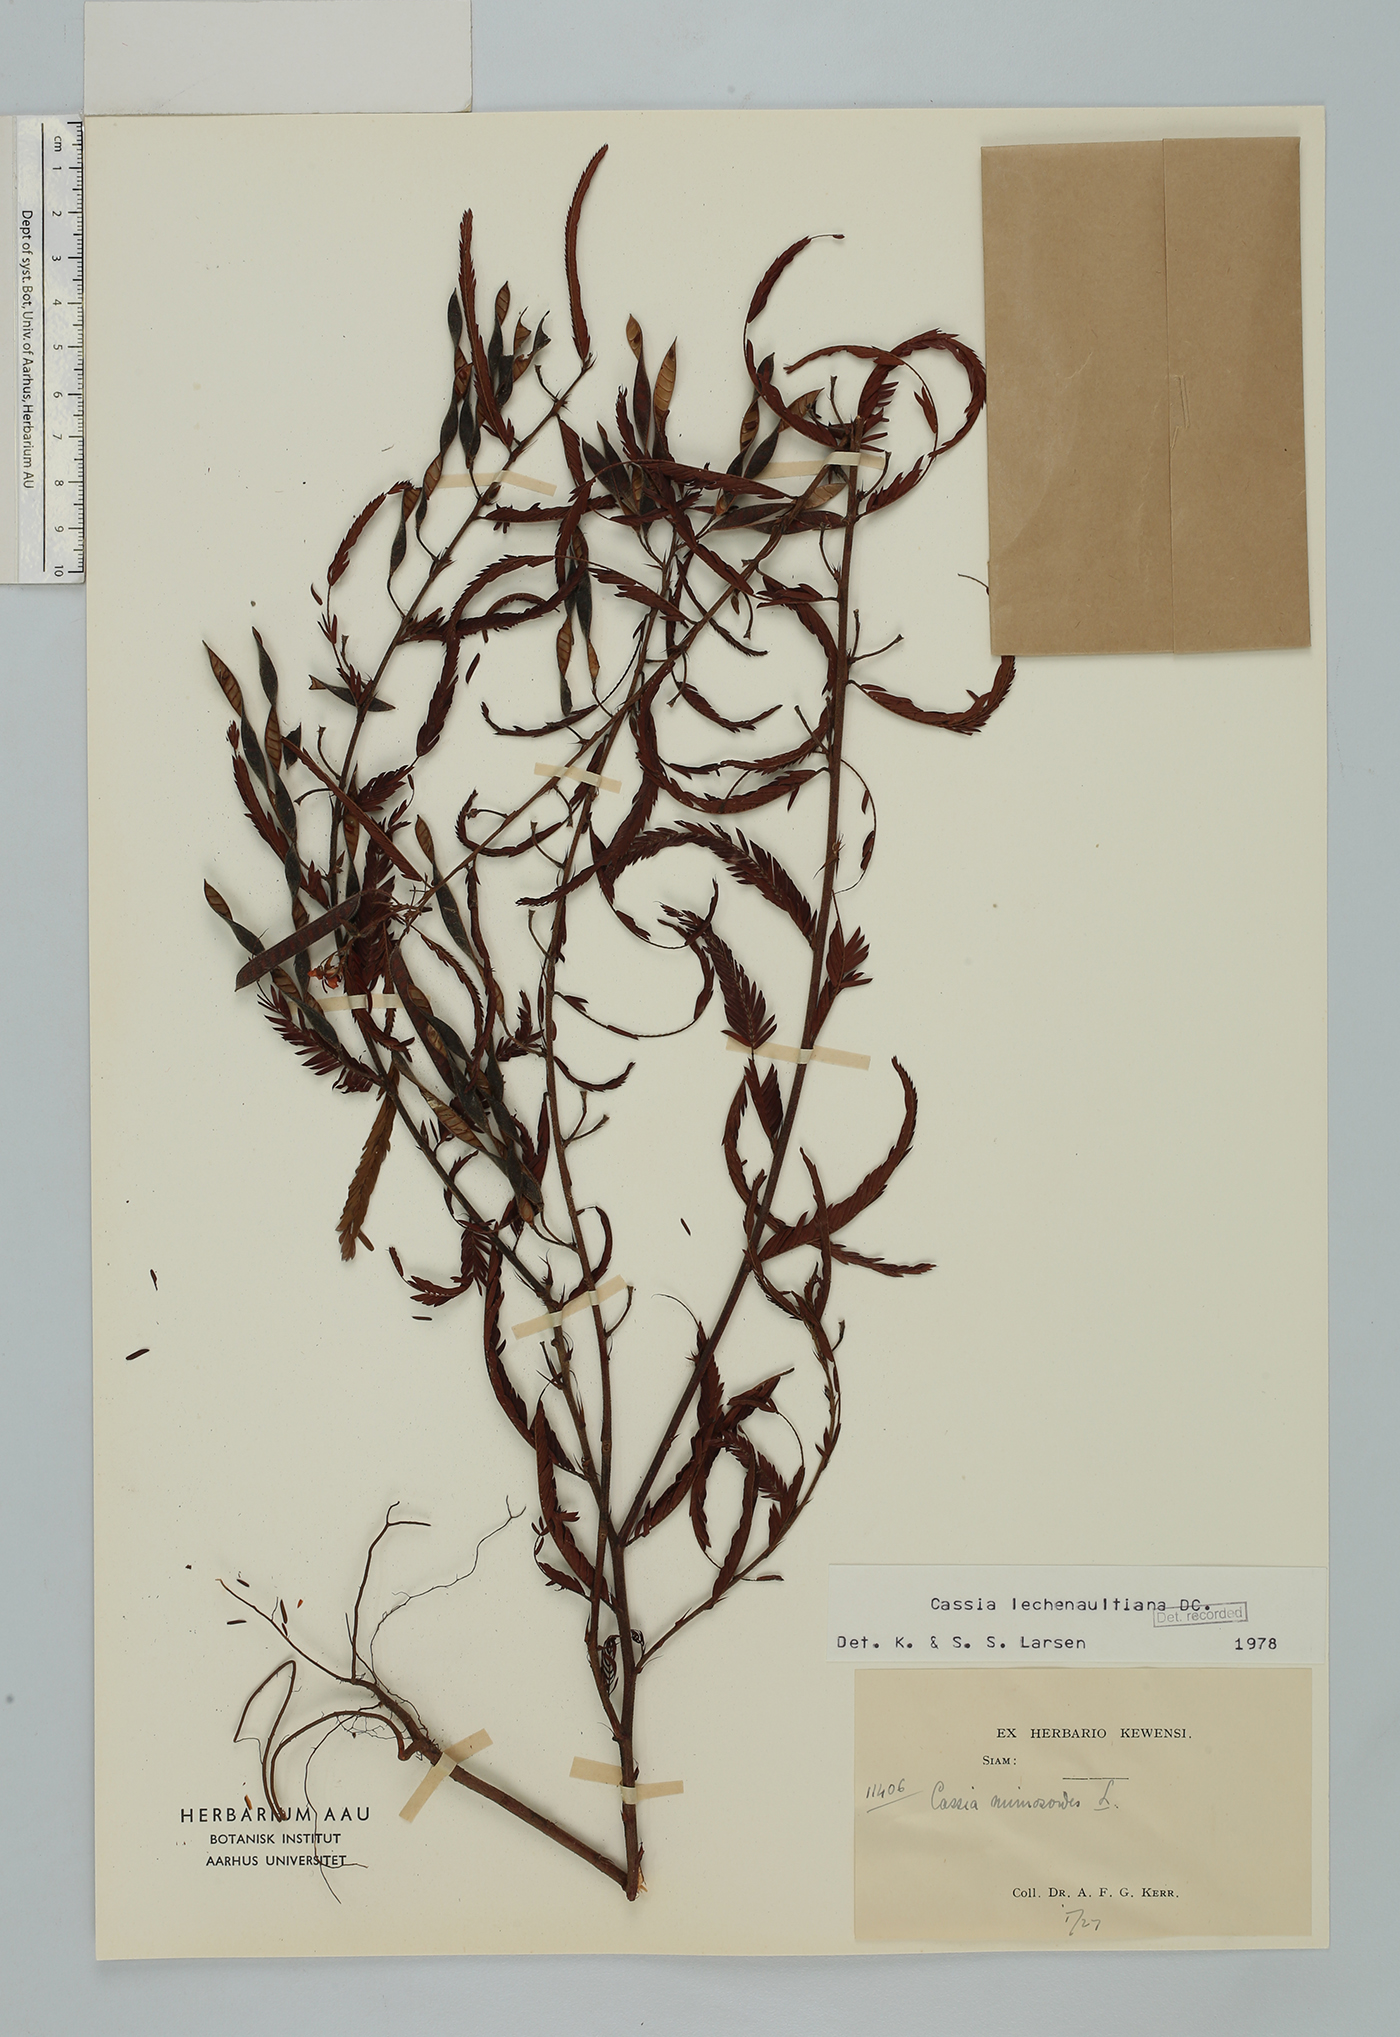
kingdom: Plantae
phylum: Tracheophyta
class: Magnoliopsida
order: Fabales
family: Fabaceae
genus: Chamaecrista
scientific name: Chamaecrista leschenaultiana
